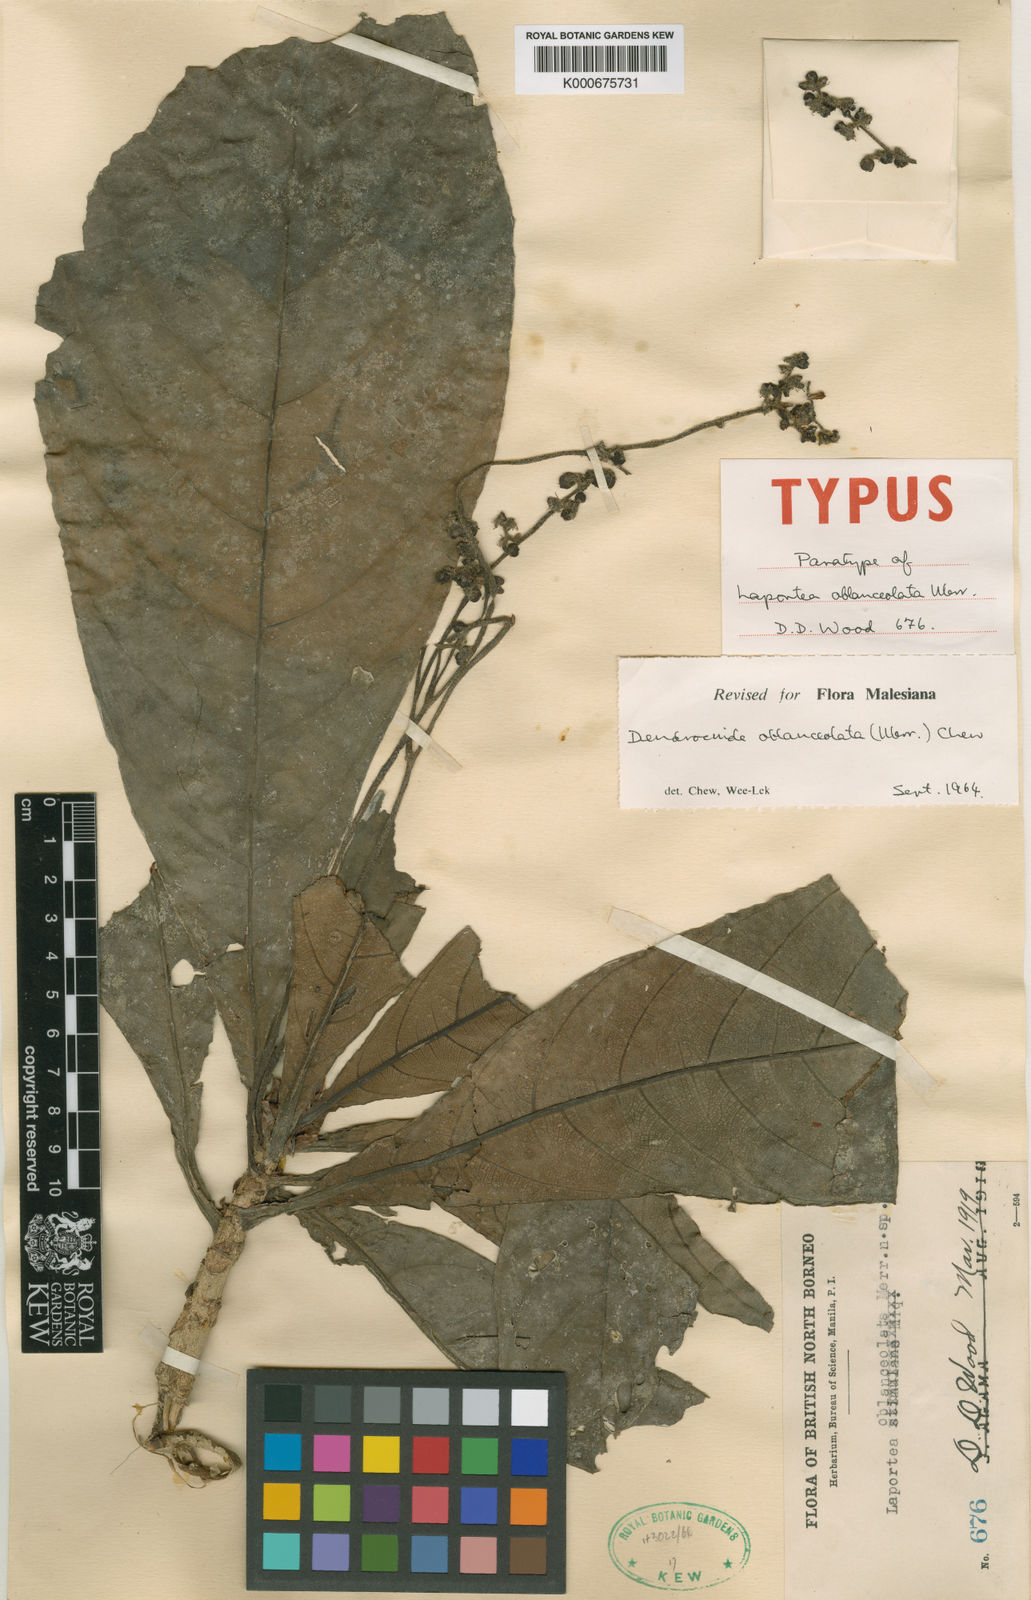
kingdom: Plantae
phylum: Tracheophyta
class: Magnoliopsida
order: Rosales
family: Urticaceae
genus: Dendrocnide
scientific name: Dendrocnide oblanceolata
